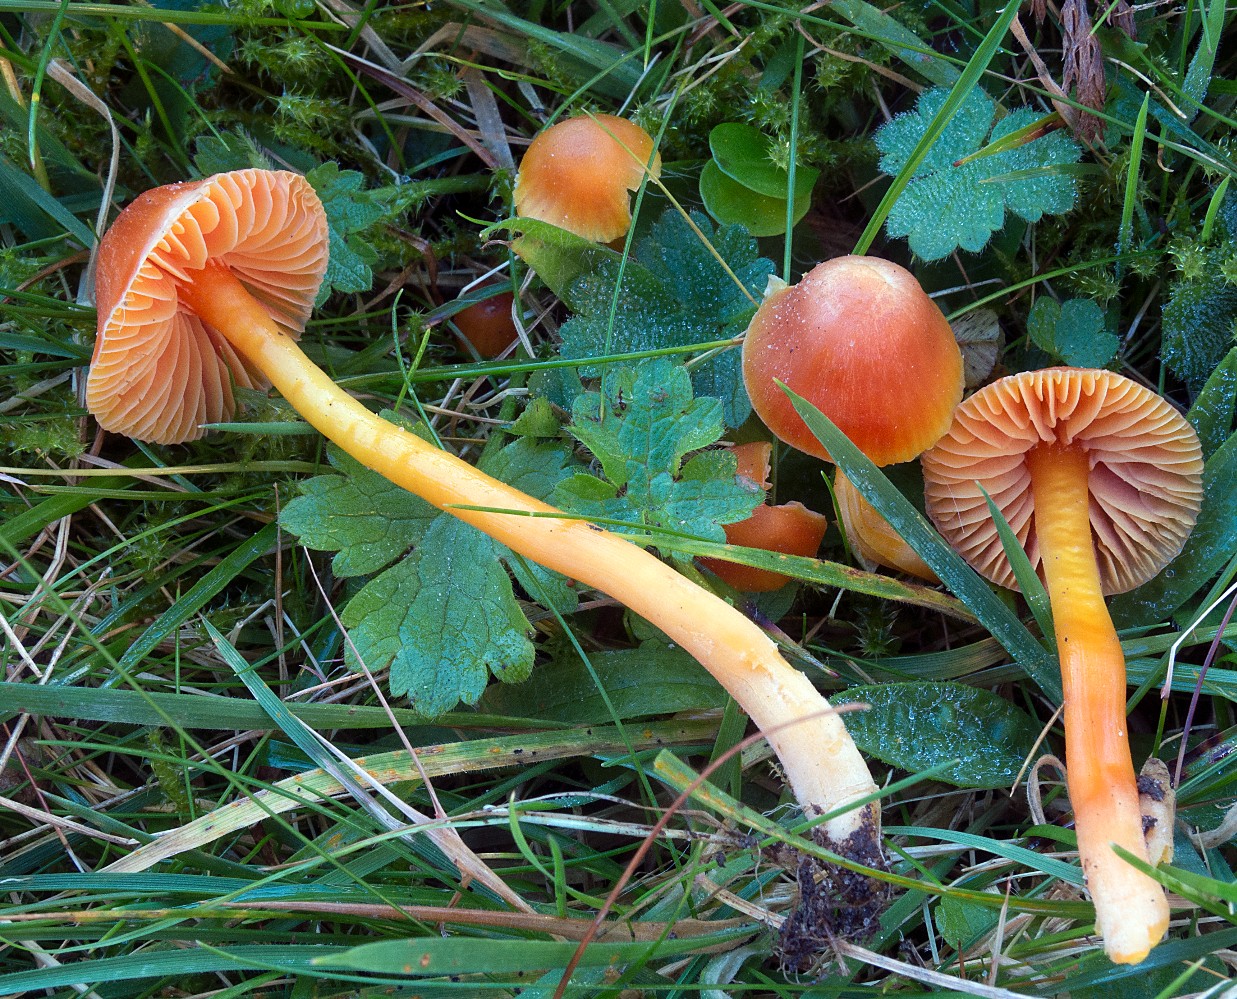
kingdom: Fungi
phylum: Basidiomycota
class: Agaricomycetes
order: Agaricales
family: Hygrophoraceae
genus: Hygrocybe
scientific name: Hygrocybe mucronella
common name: bitter vokshat
